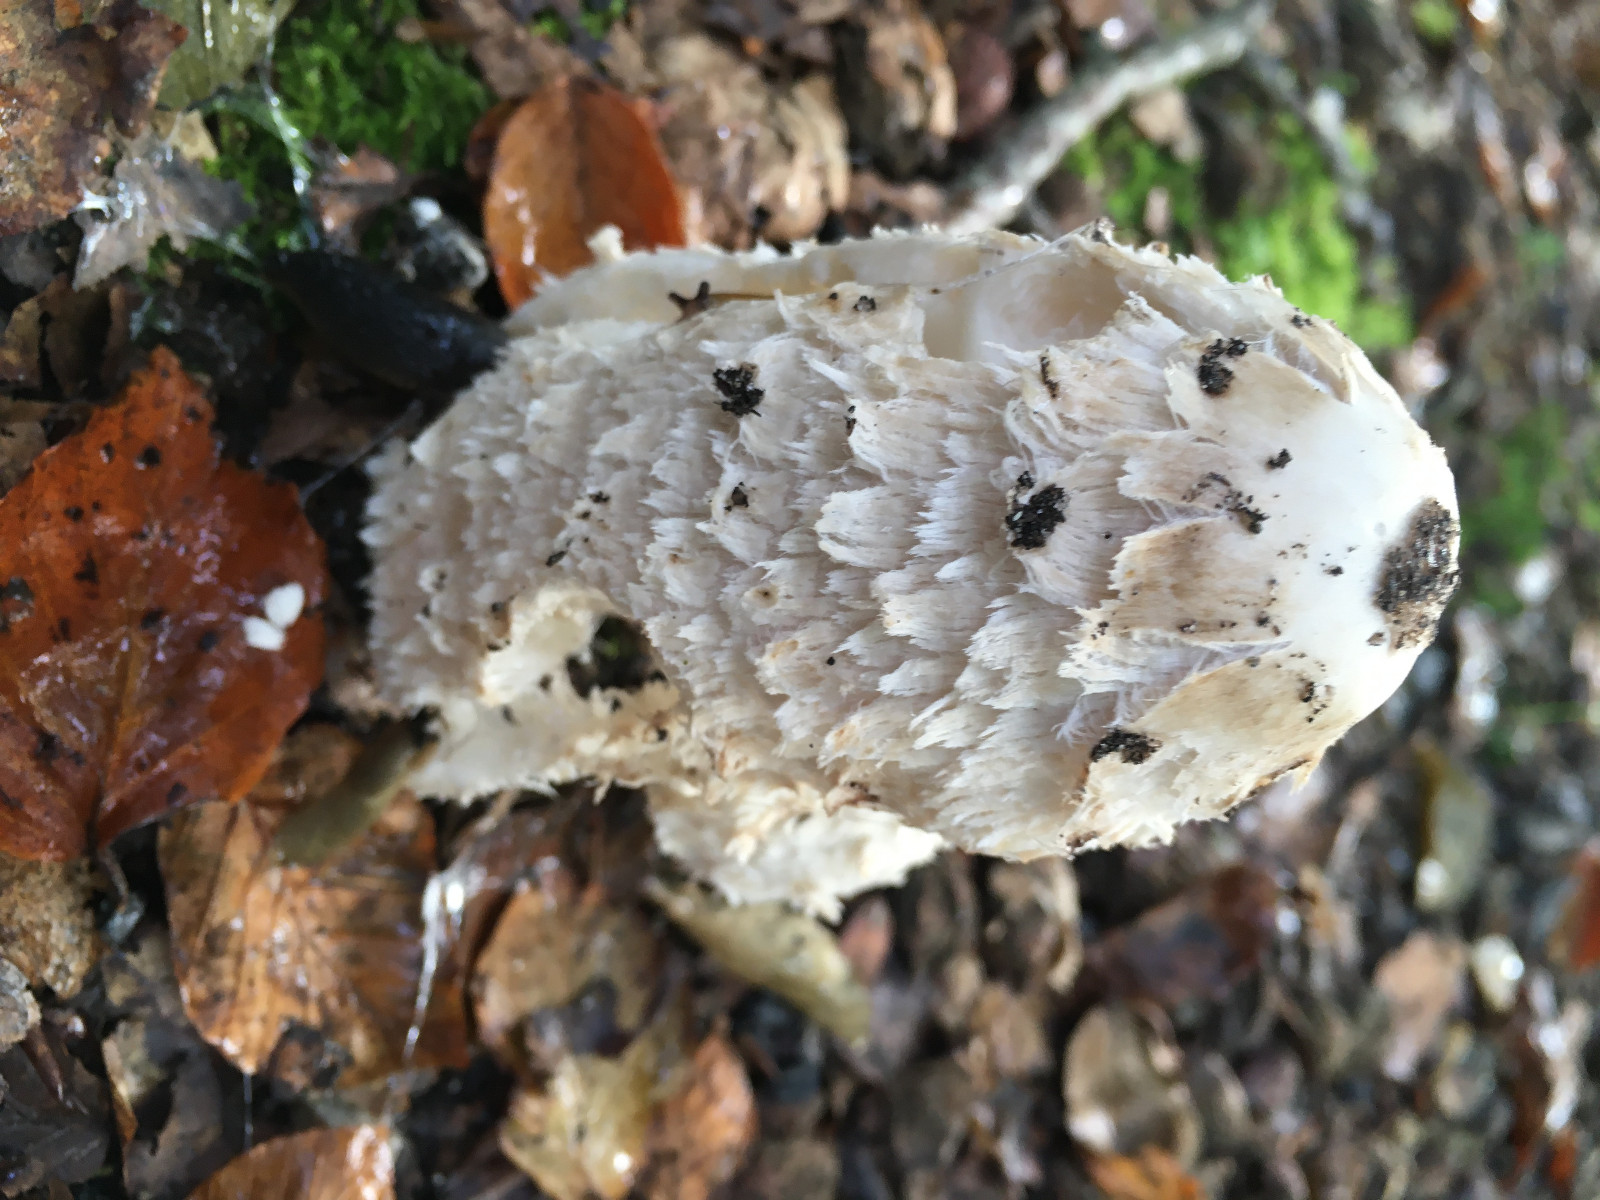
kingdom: Fungi
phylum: Basidiomycota
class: Agaricomycetes
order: Agaricales
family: Agaricaceae
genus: Coprinus
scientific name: Coprinus comatus
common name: stor parykhat
